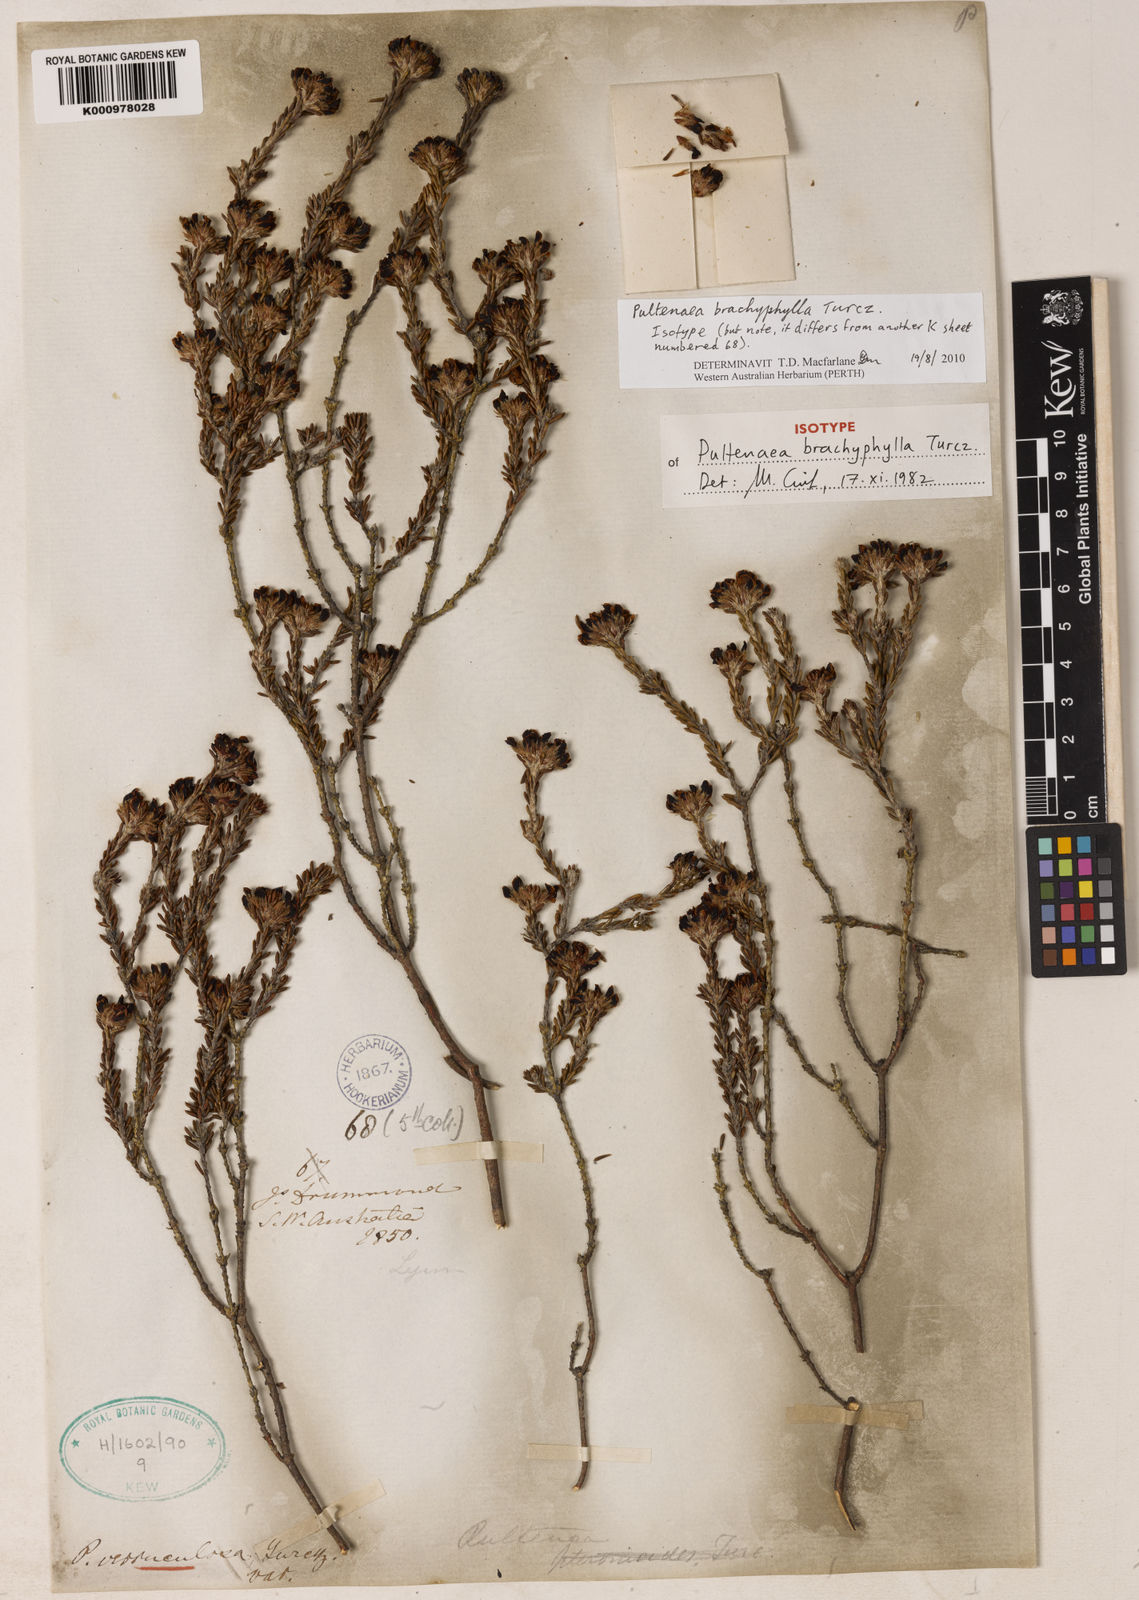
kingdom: Plantae
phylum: Tracheophyta
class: Magnoliopsida
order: Fabales
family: Fabaceae
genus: Pultenaea
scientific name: Pultenaea brachyphylla
